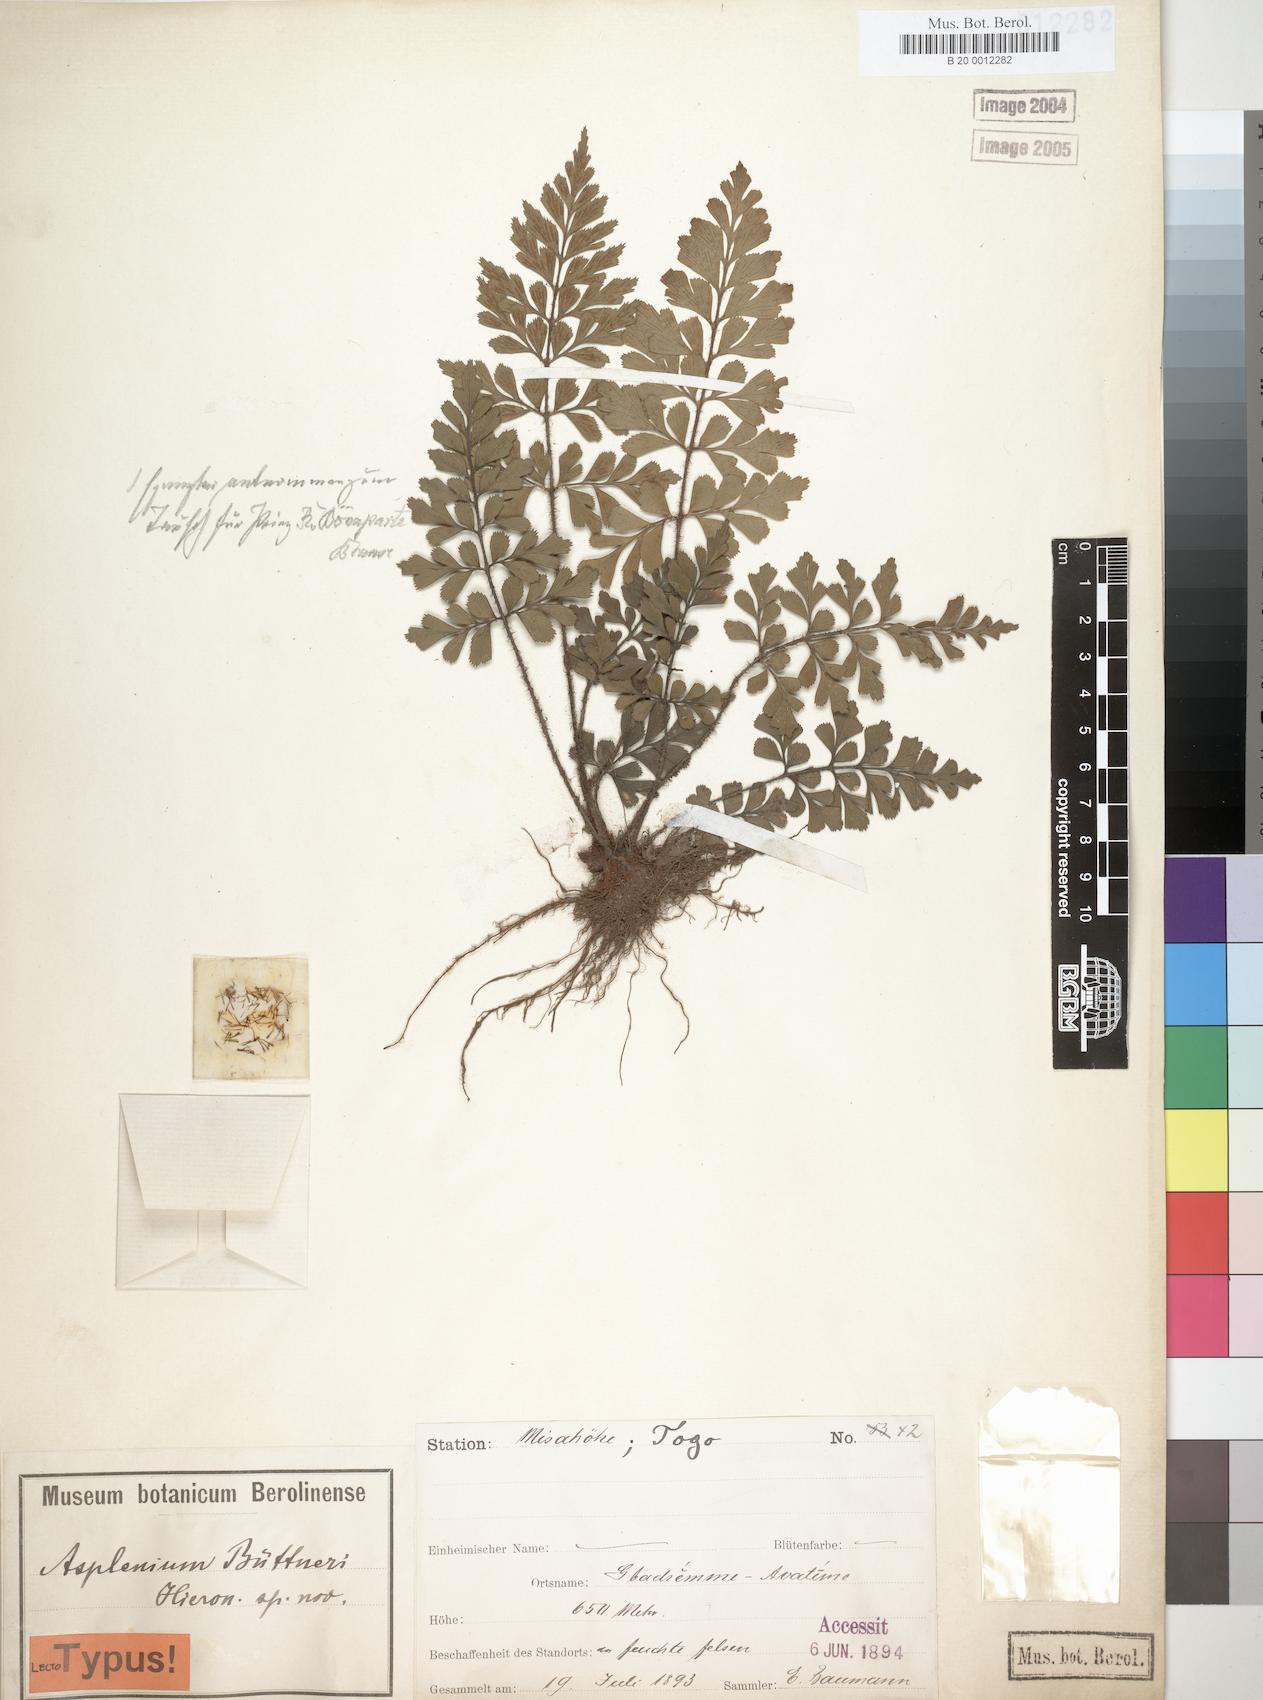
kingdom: Plantae
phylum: Tracheophyta
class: Polypodiopsida
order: Polypodiales
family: Aspleniaceae
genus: Asplenium
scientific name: Asplenium buettneri
